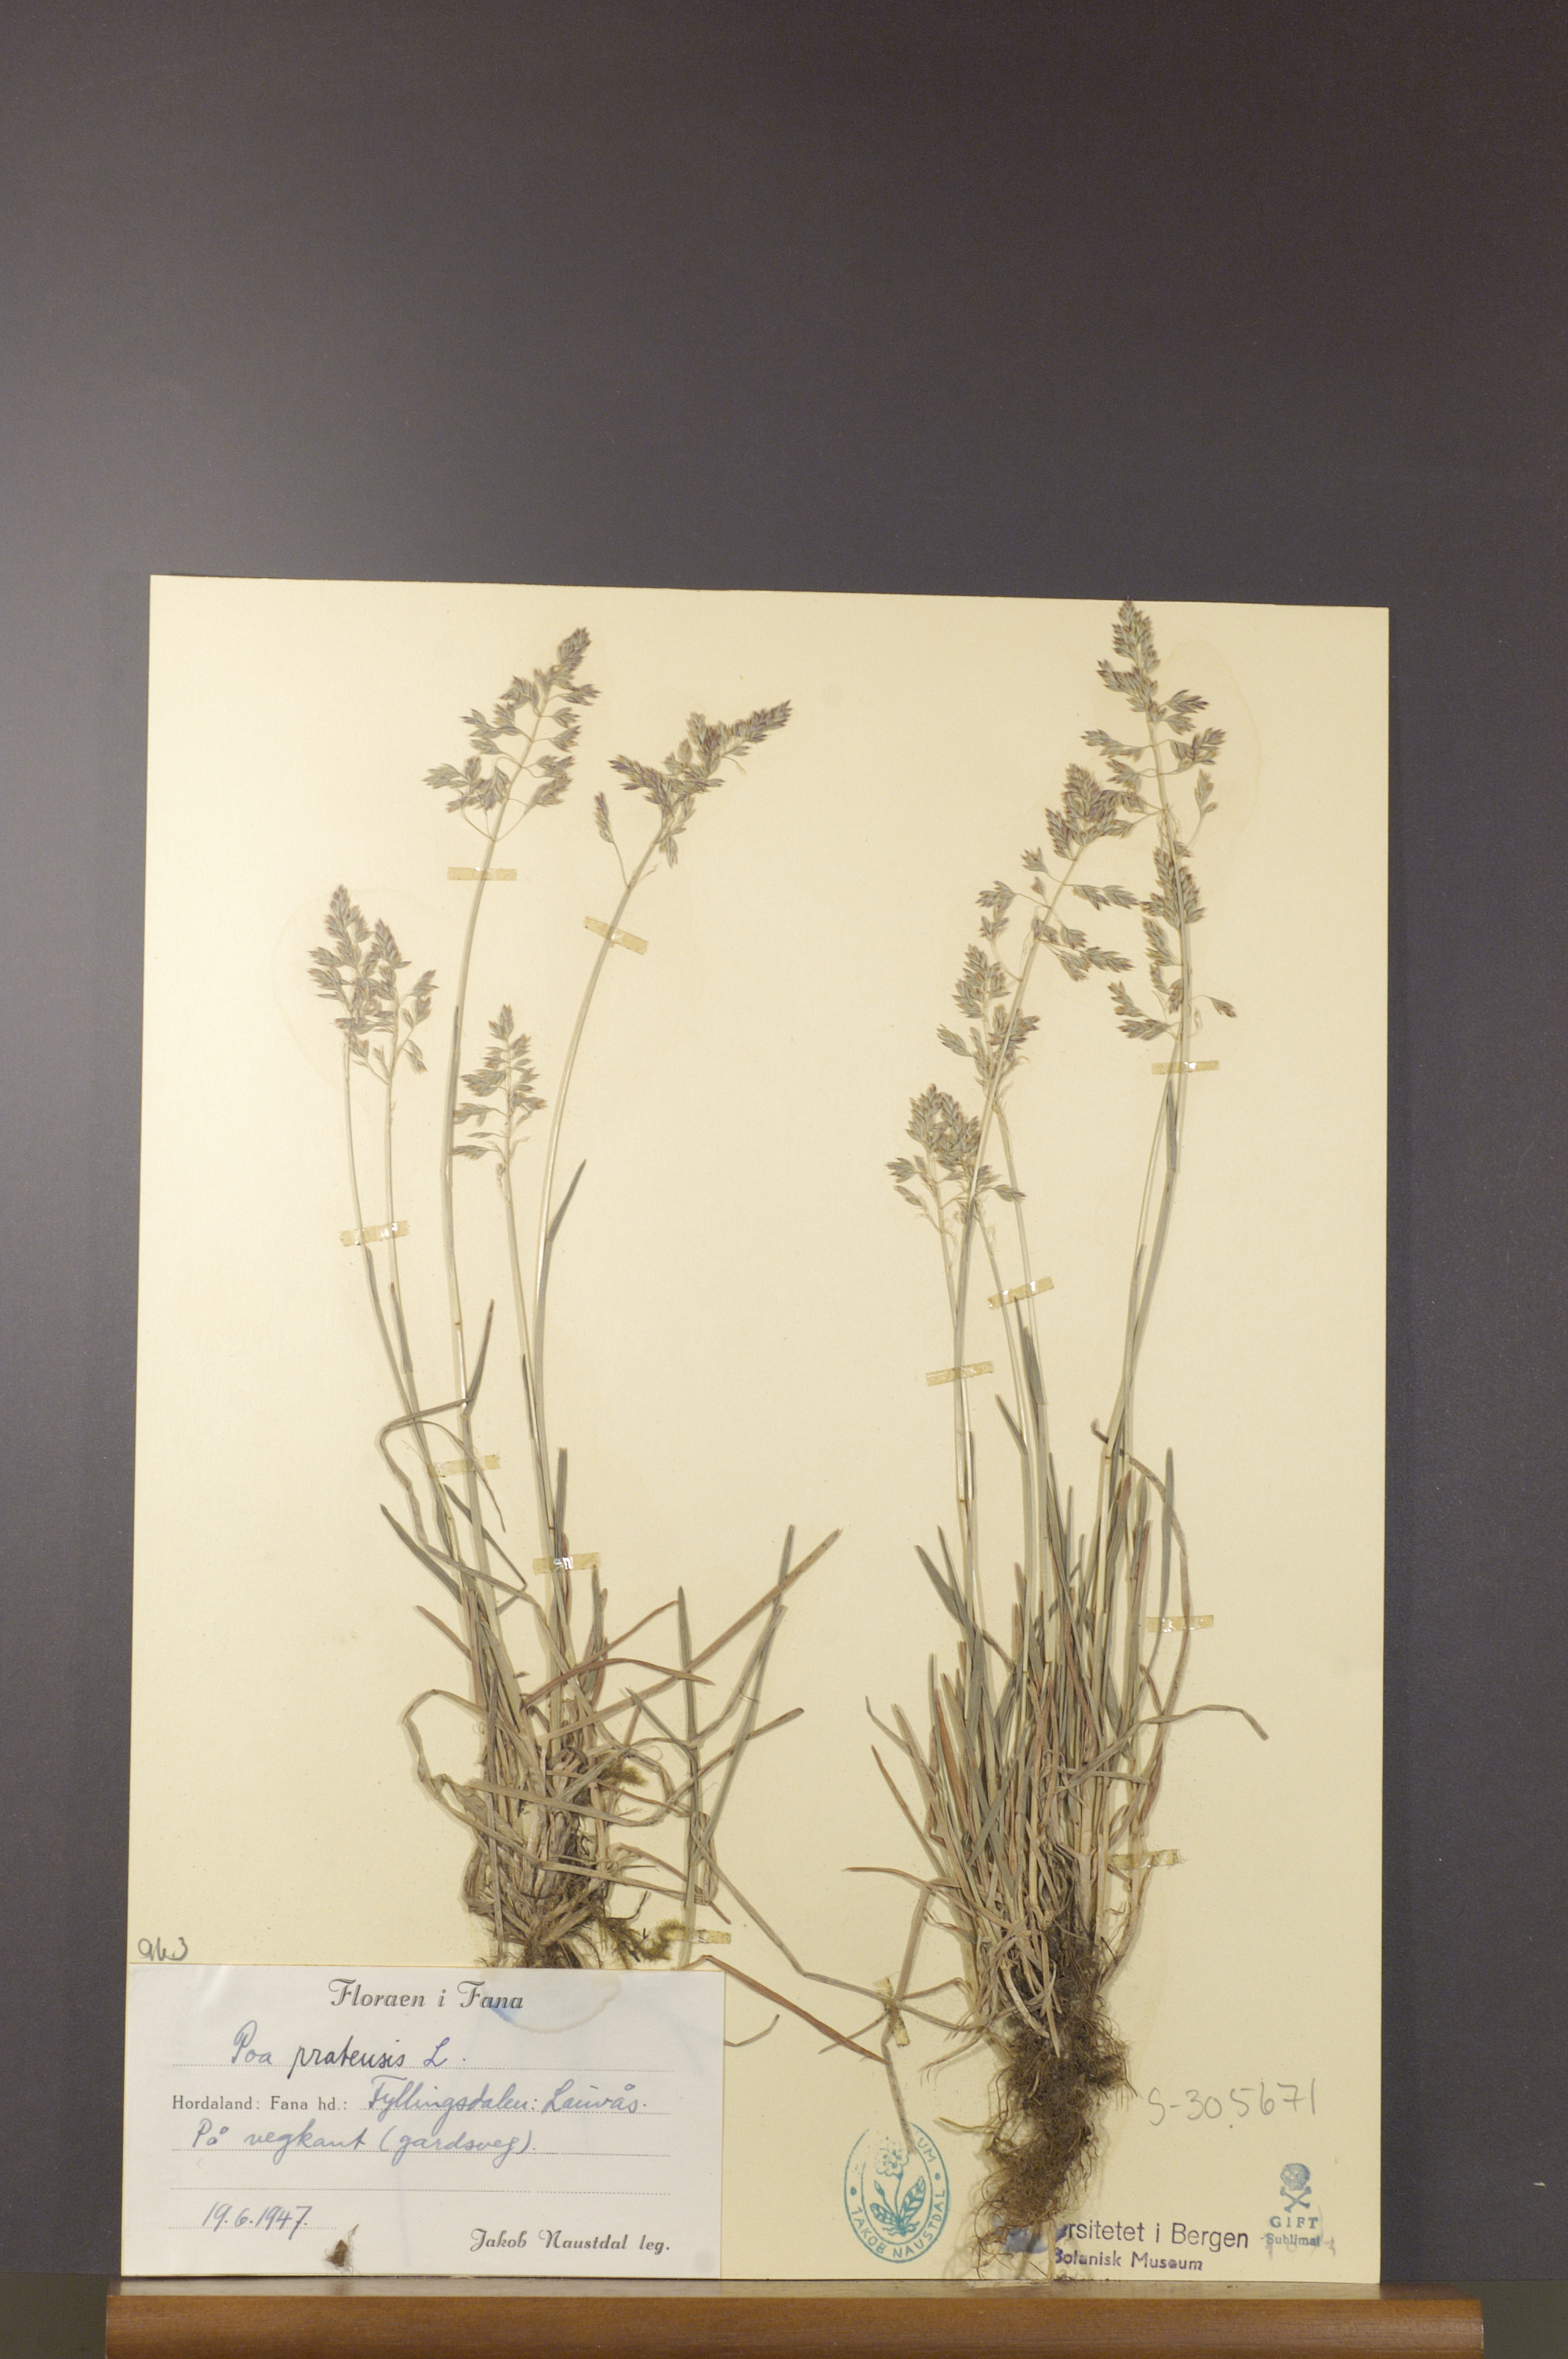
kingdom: Plantae
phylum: Tracheophyta
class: Liliopsida
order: Poales
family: Poaceae
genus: Poa
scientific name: Poa pratensis
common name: Kentucky bluegrass
